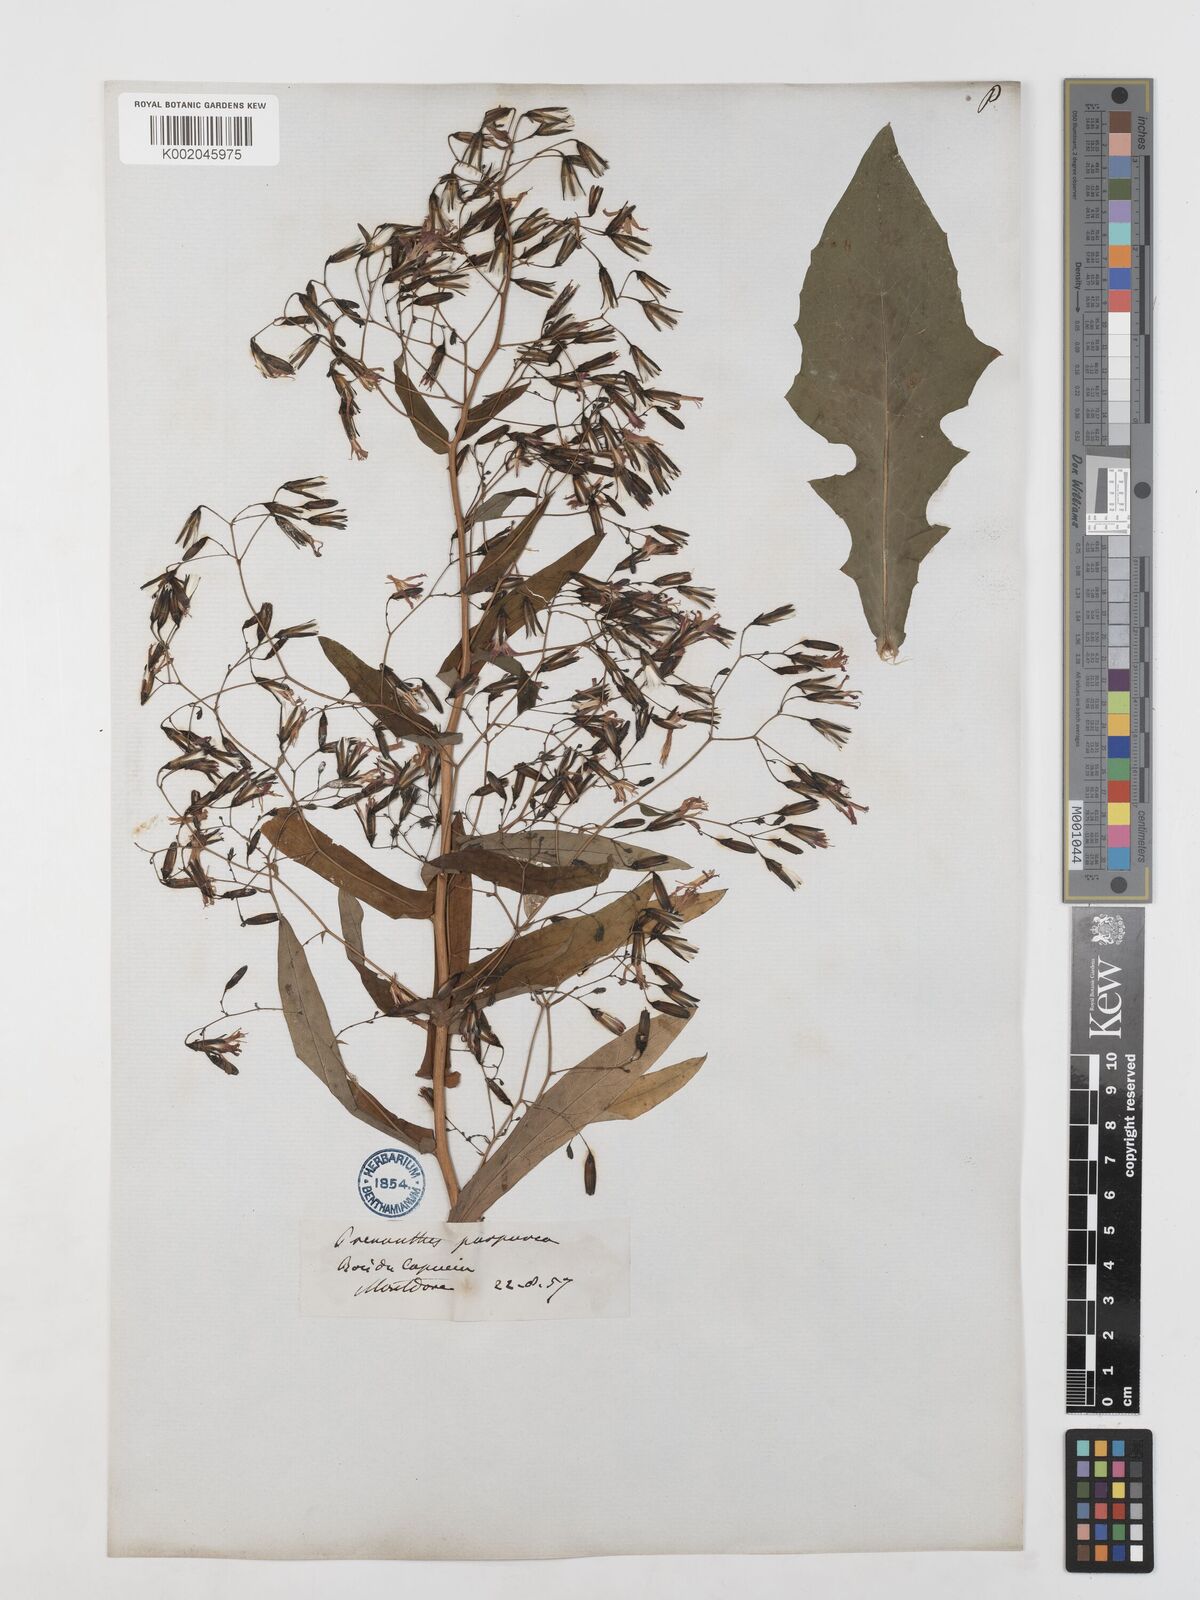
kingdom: Plantae
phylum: Tracheophyta
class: Magnoliopsida
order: Asterales
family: Asteraceae
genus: Prenanthes
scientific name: Prenanthes purpurea
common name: Purple lettuce
